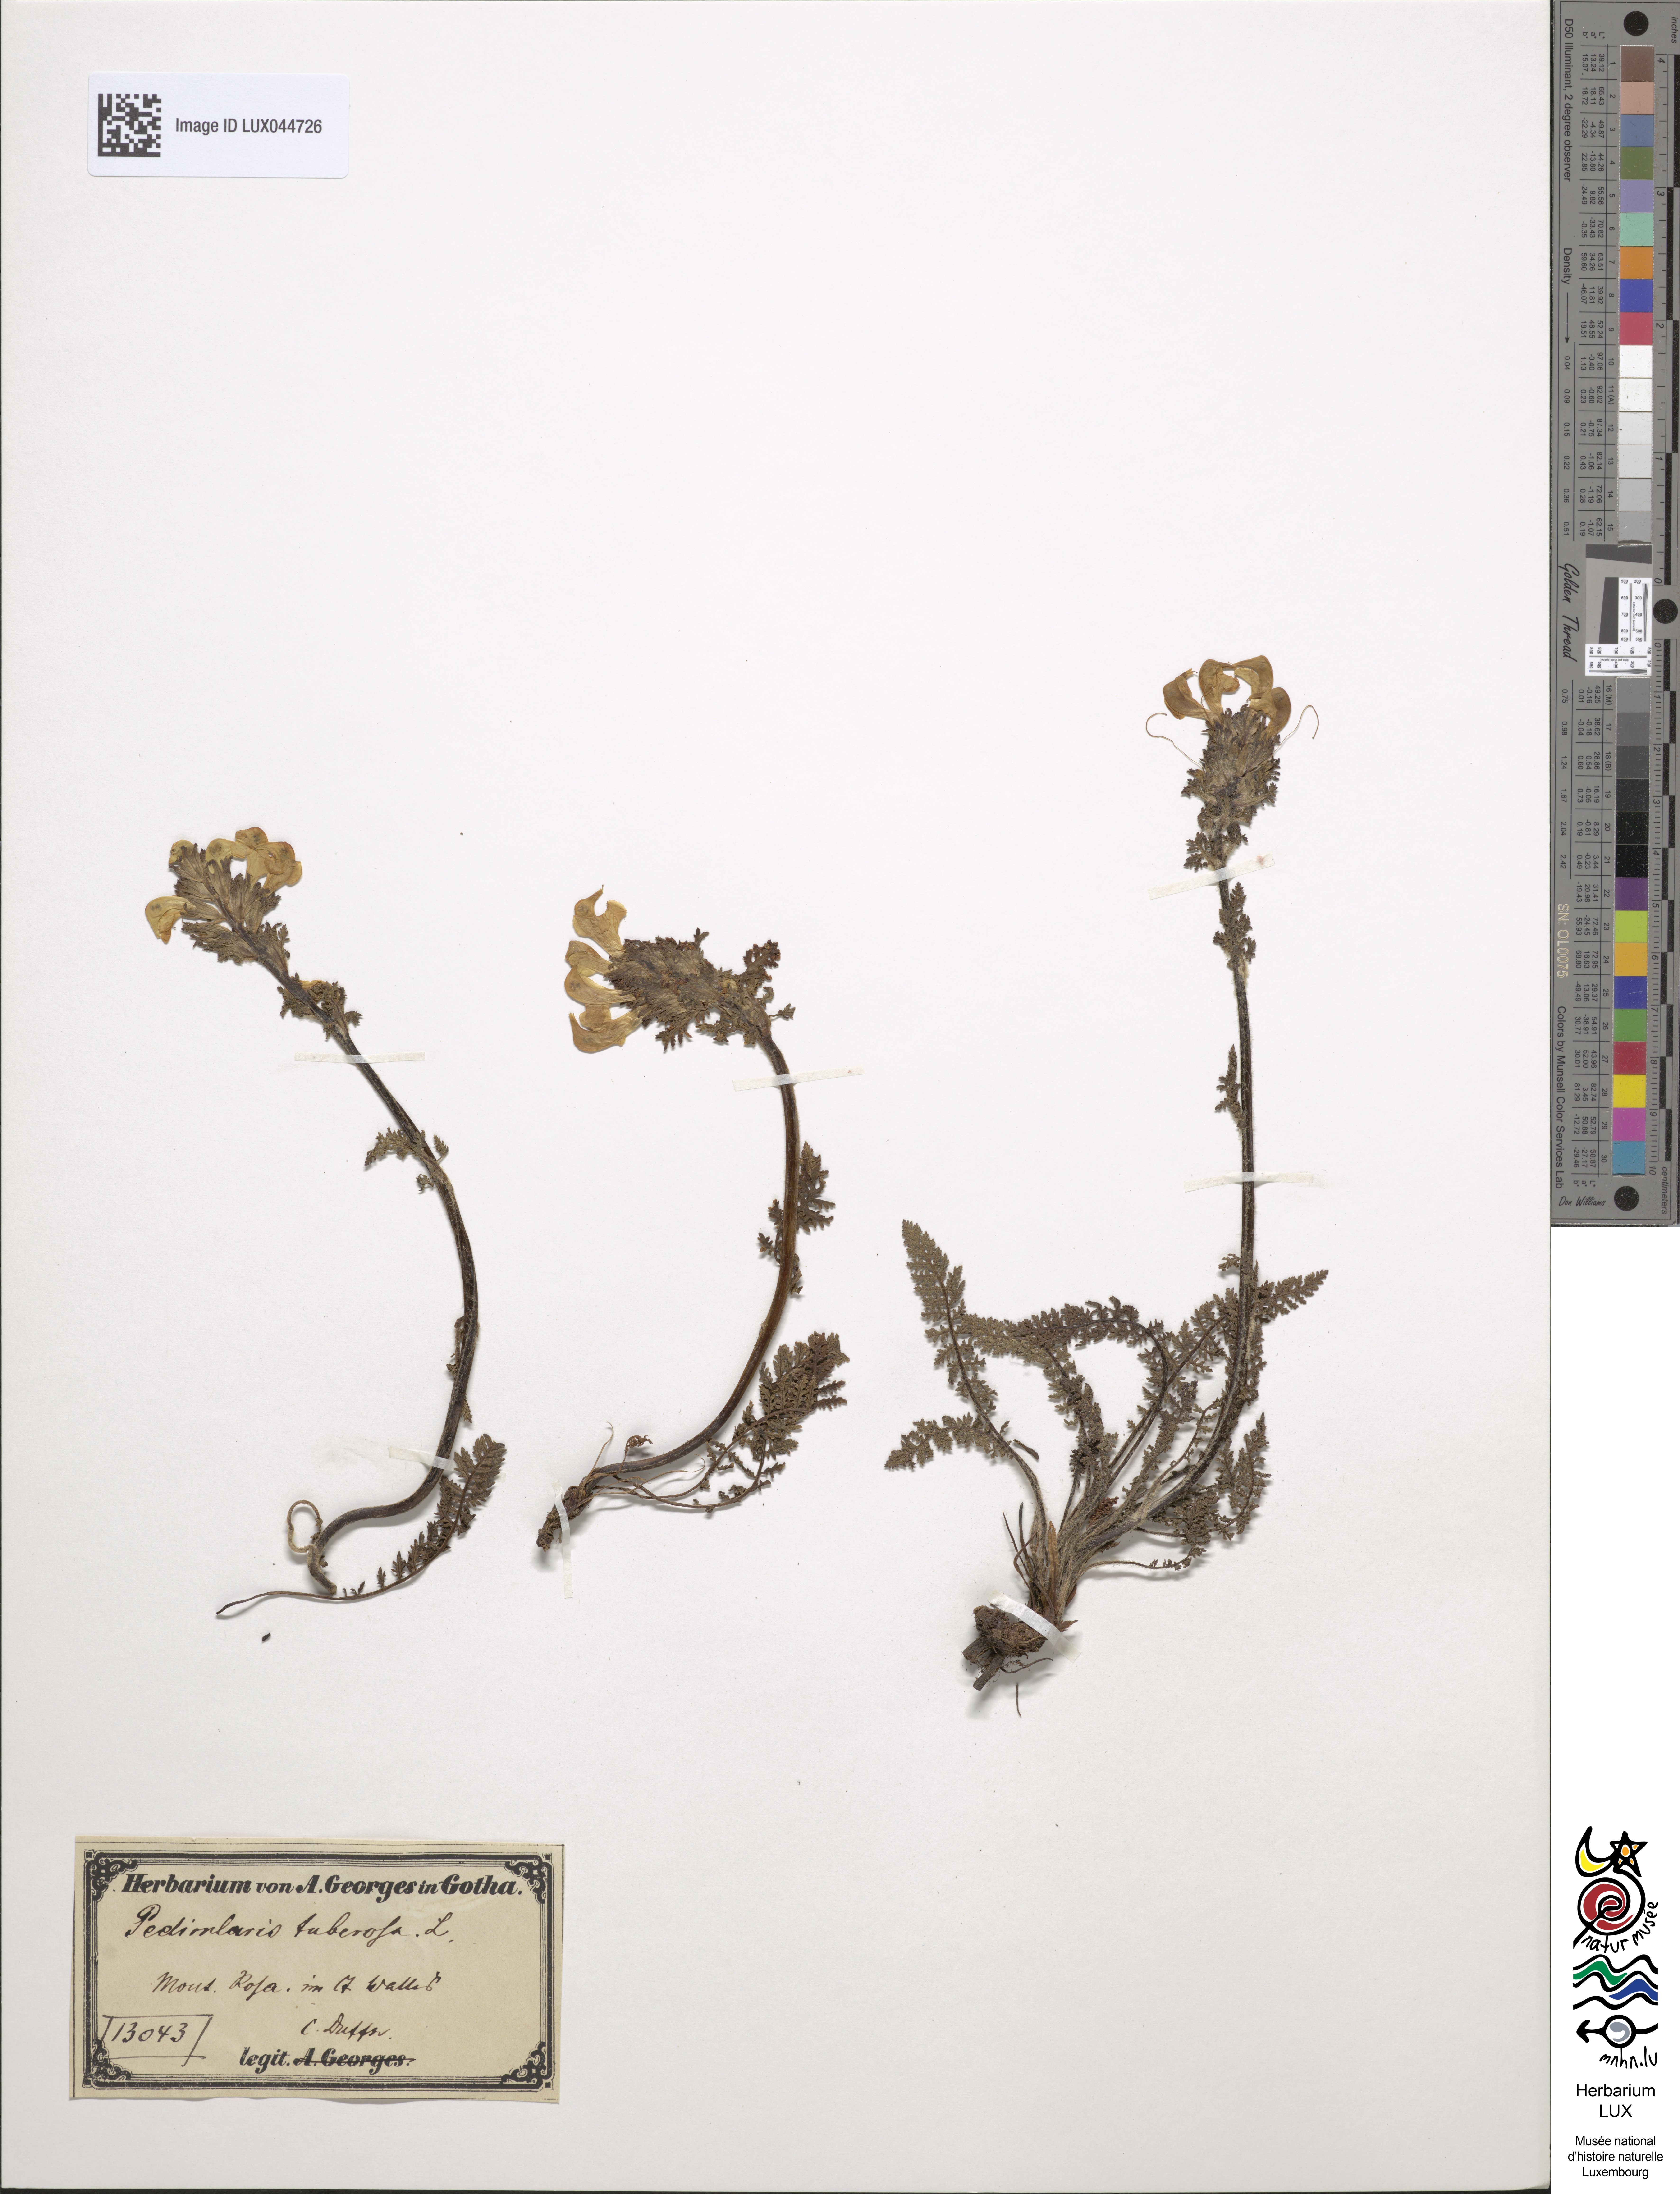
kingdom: Plantae
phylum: Tracheophyta
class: Magnoliopsida
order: Lamiales
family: Orobanchaceae
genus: Pedicularis
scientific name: Pedicularis tuberosa
